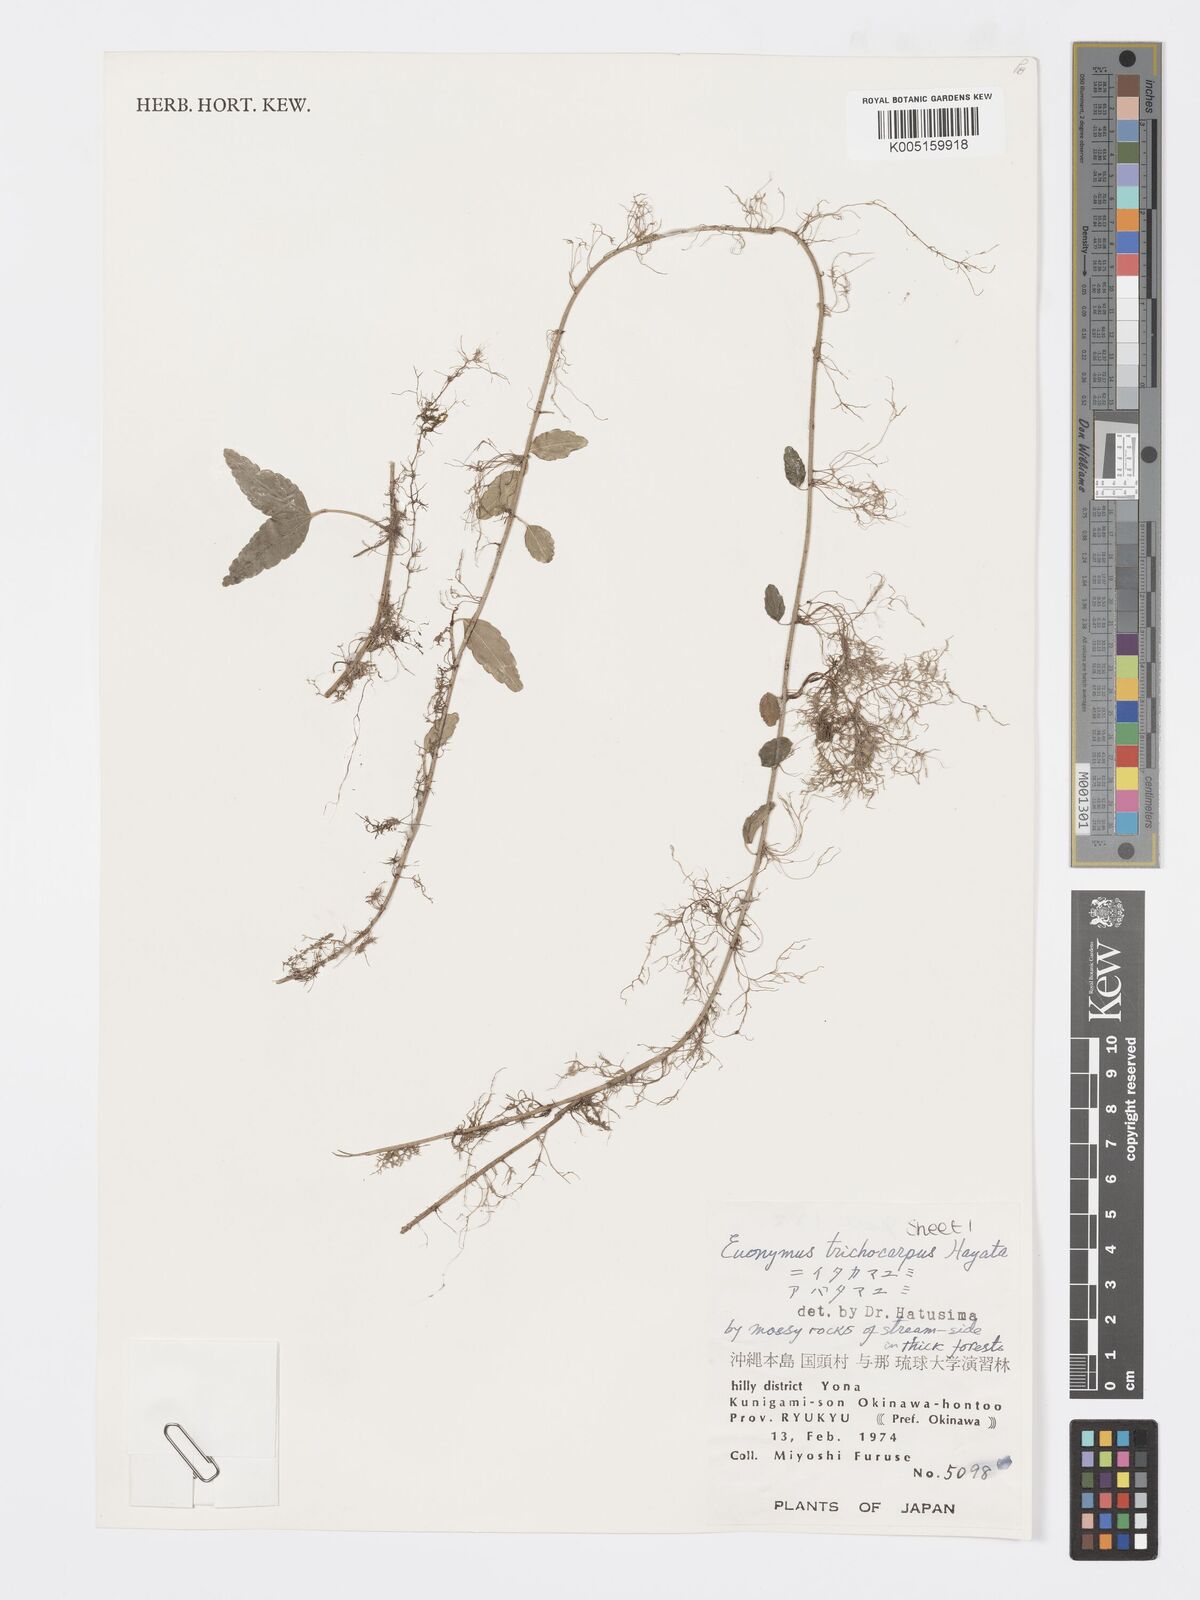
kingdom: Plantae
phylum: Tracheophyta
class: Magnoliopsida
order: Celastrales
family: Celastraceae
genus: Euonymus
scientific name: Euonymus echinatus
